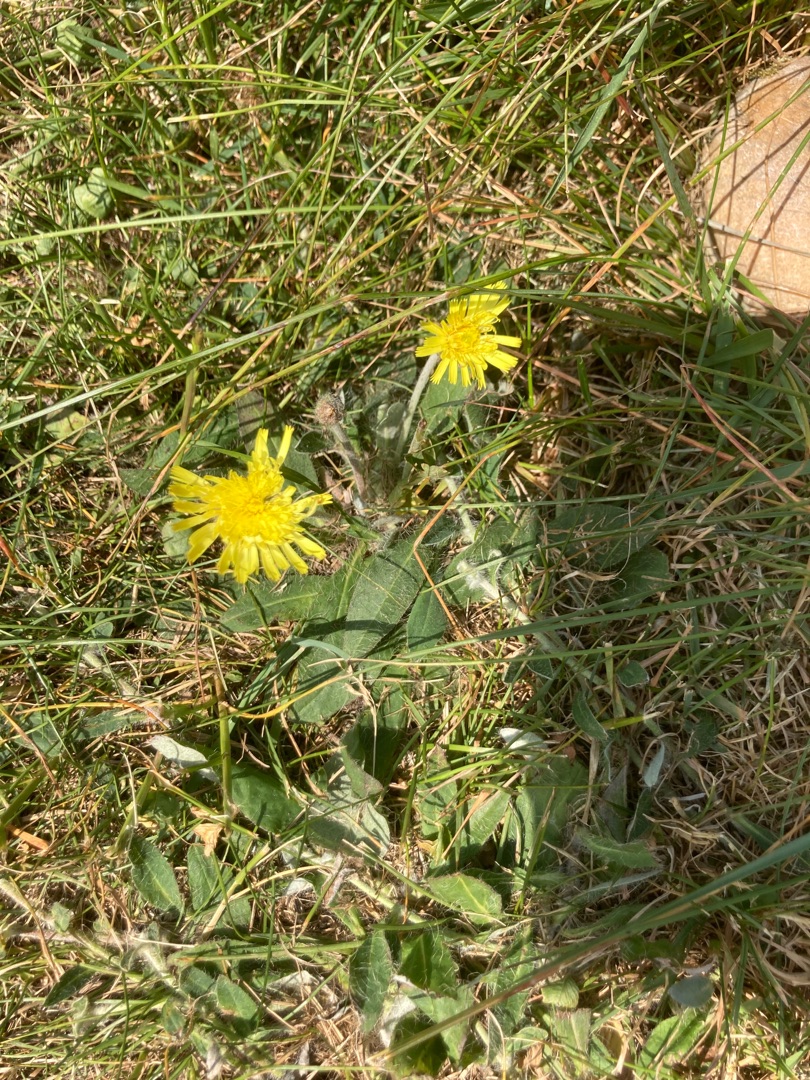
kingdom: Plantae
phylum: Tracheophyta
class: Magnoliopsida
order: Asterales
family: Asteraceae
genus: Pilosella
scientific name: Pilosella officinarum
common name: Håret høgeurt
